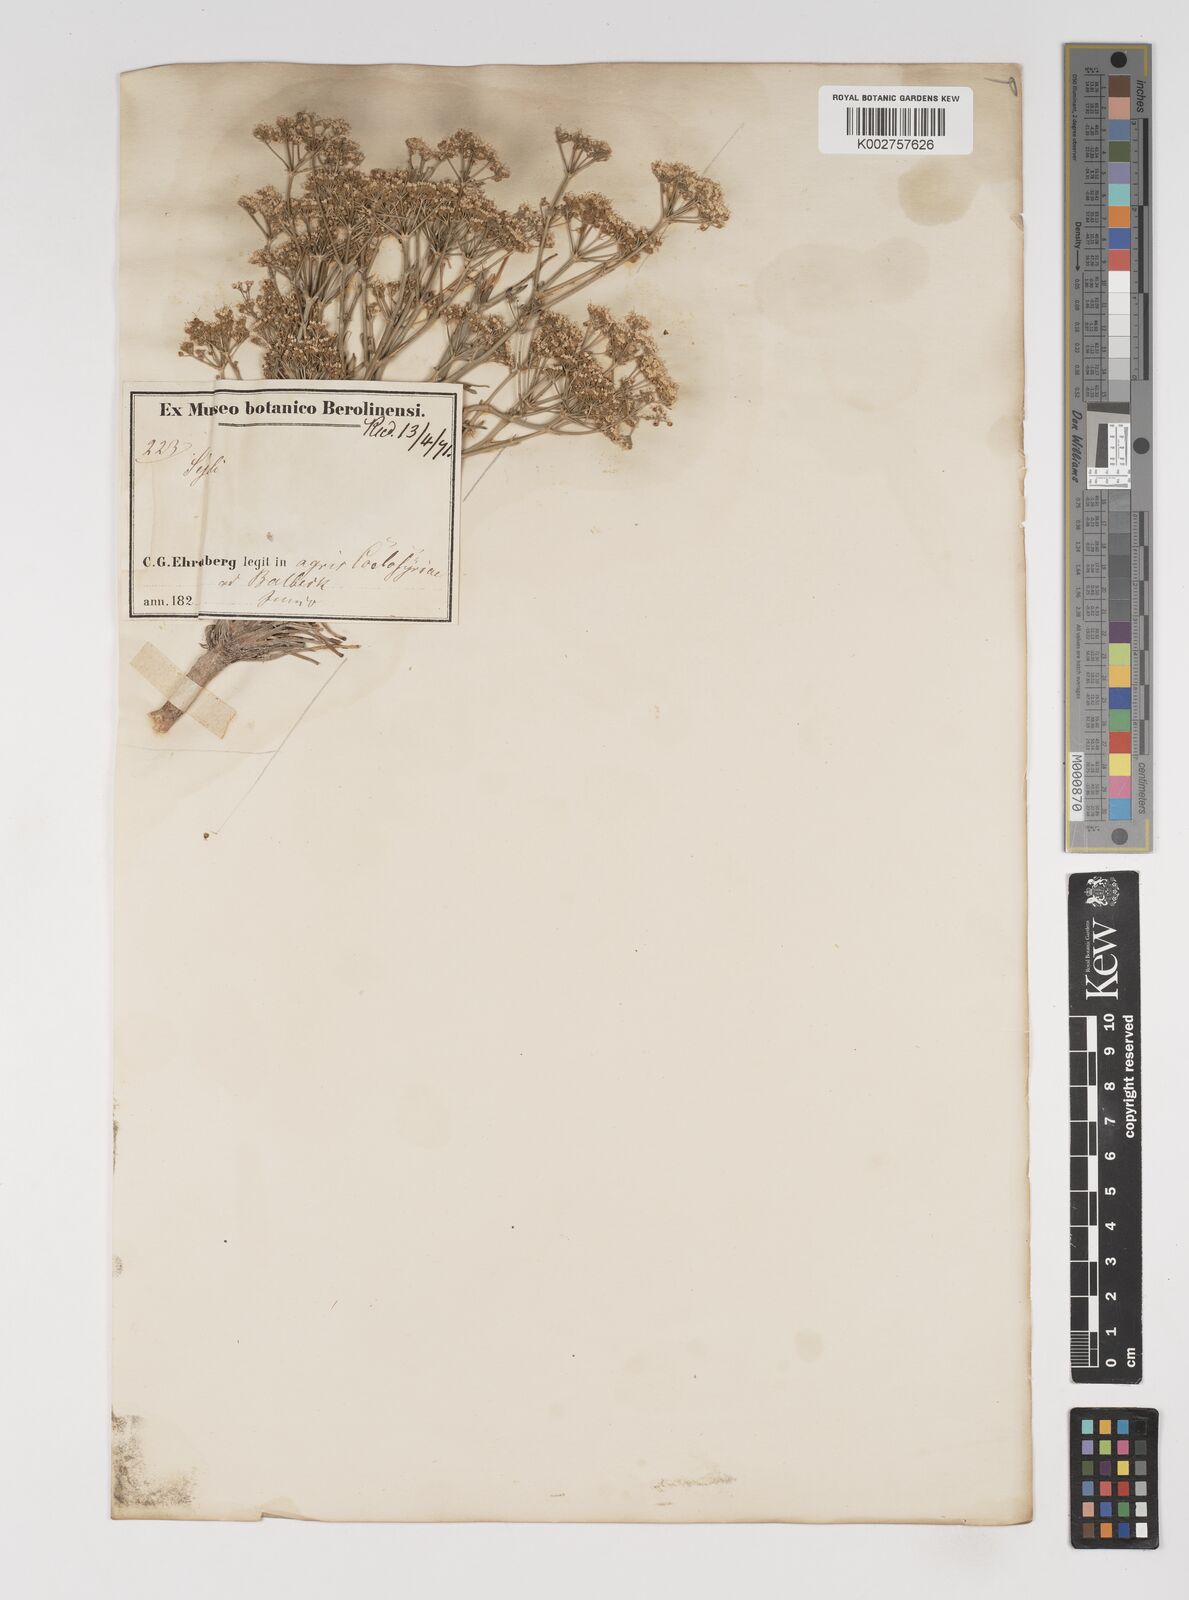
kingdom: Plantae
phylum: Tracheophyta
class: Magnoliopsida
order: Apiales
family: Apiaceae
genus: Seseli
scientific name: Seseli
